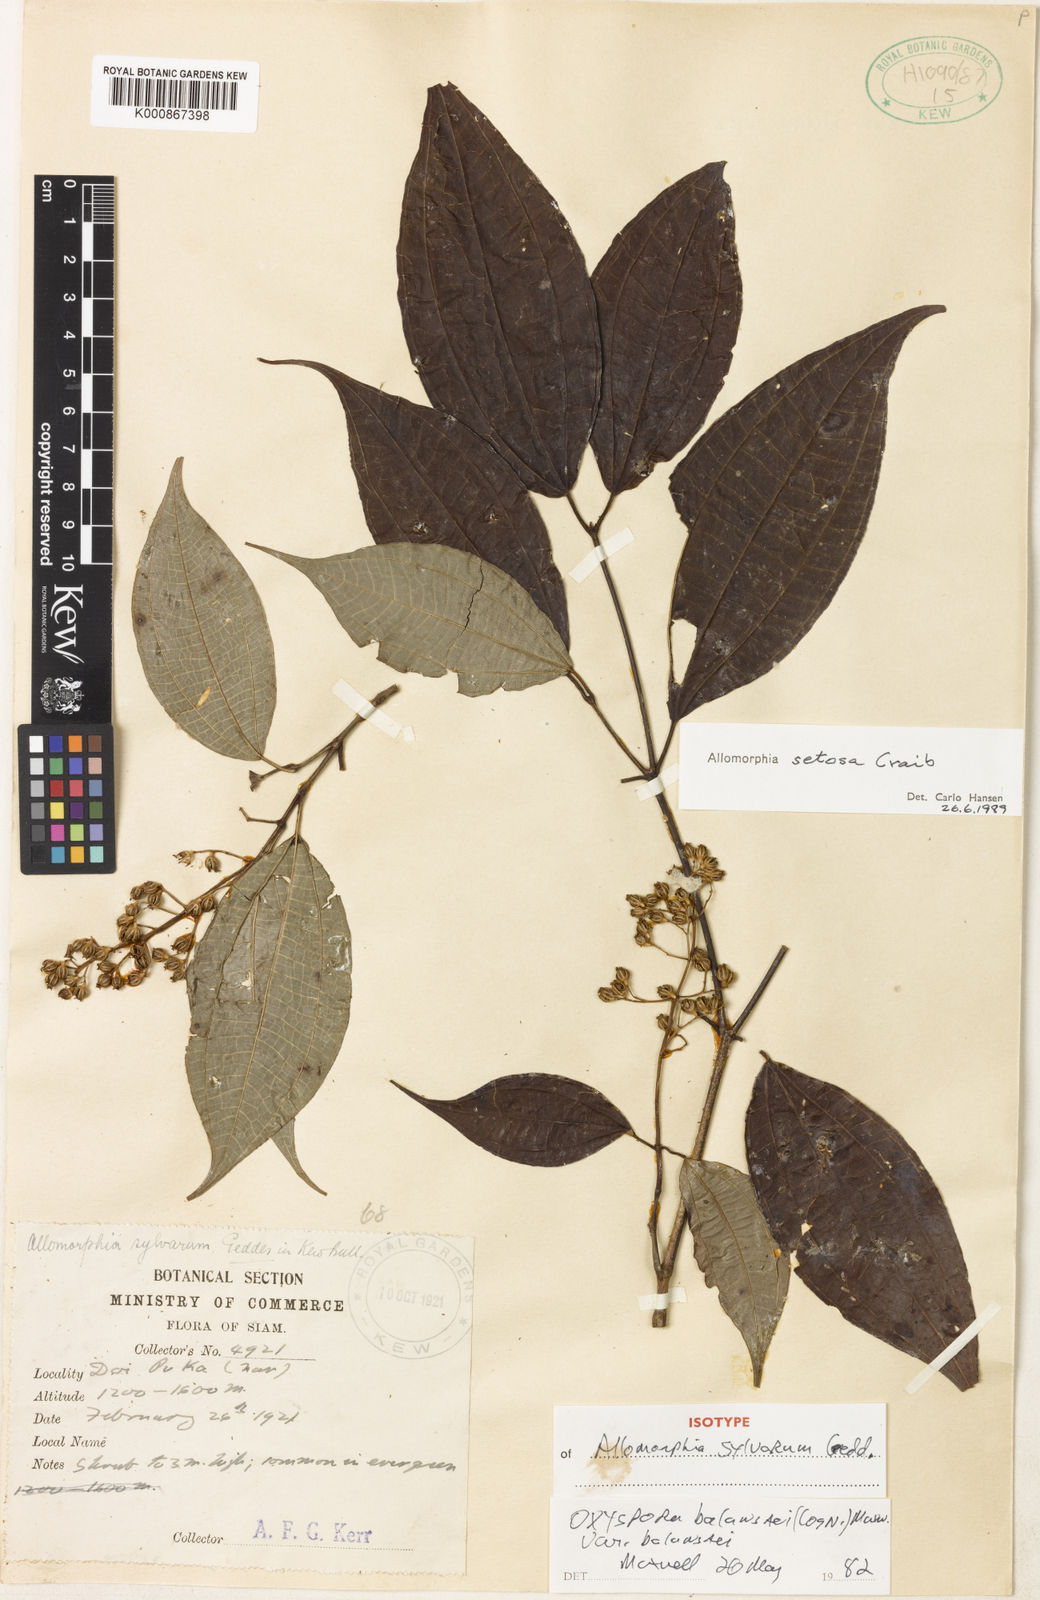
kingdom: Plantae
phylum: Tracheophyta
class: Magnoliopsida
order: Myrtales
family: Melastomataceae
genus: Allomorphia
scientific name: Allomorphia howellii
